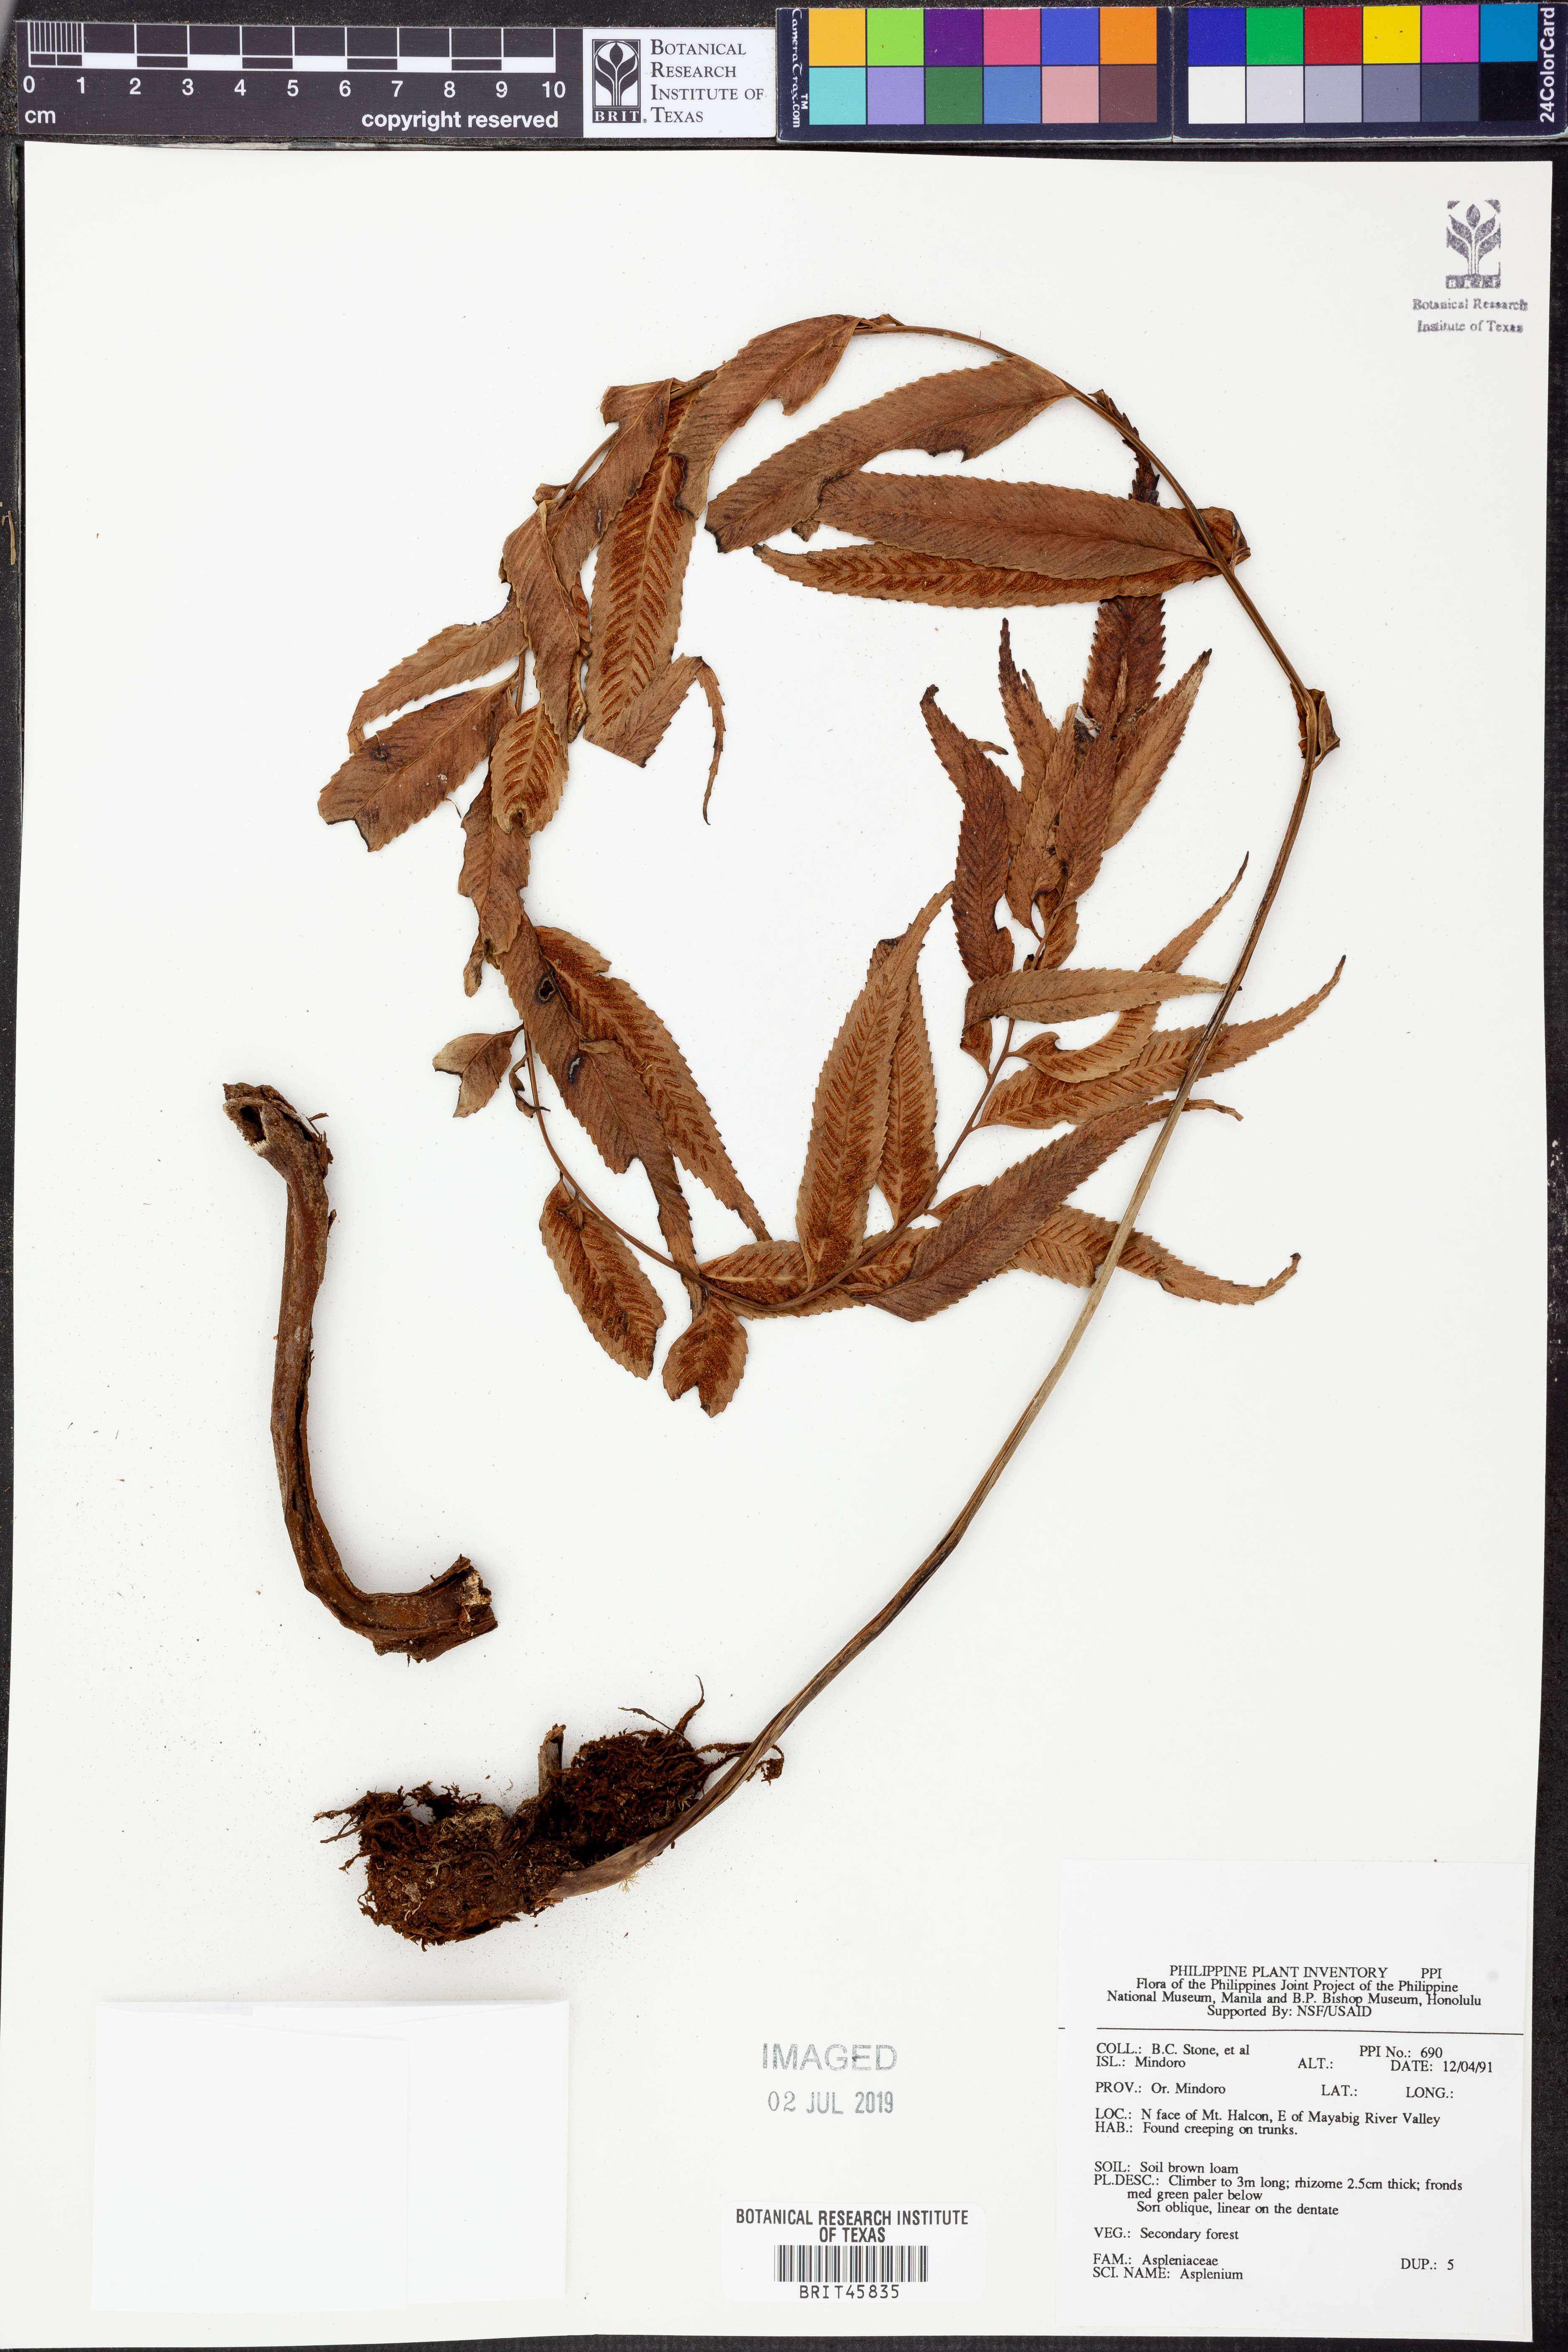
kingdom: Plantae
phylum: Tracheophyta
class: Polypodiopsida
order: Polypodiales
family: Aspleniaceae
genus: Asplenium
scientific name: Asplenium
